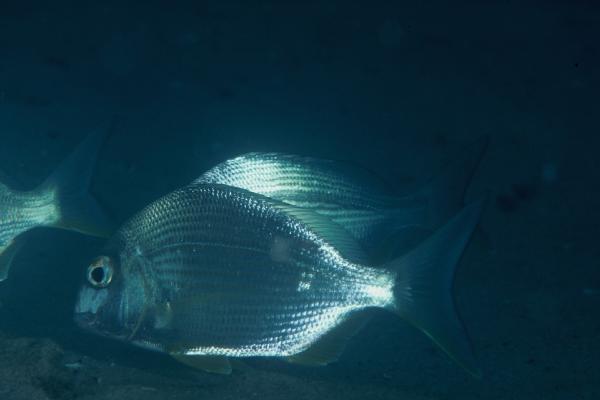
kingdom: Animalia
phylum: Chordata
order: Perciformes
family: Sparidae
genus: Rhabdosargus
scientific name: Rhabdosargus sarba
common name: Goldlined seabream
